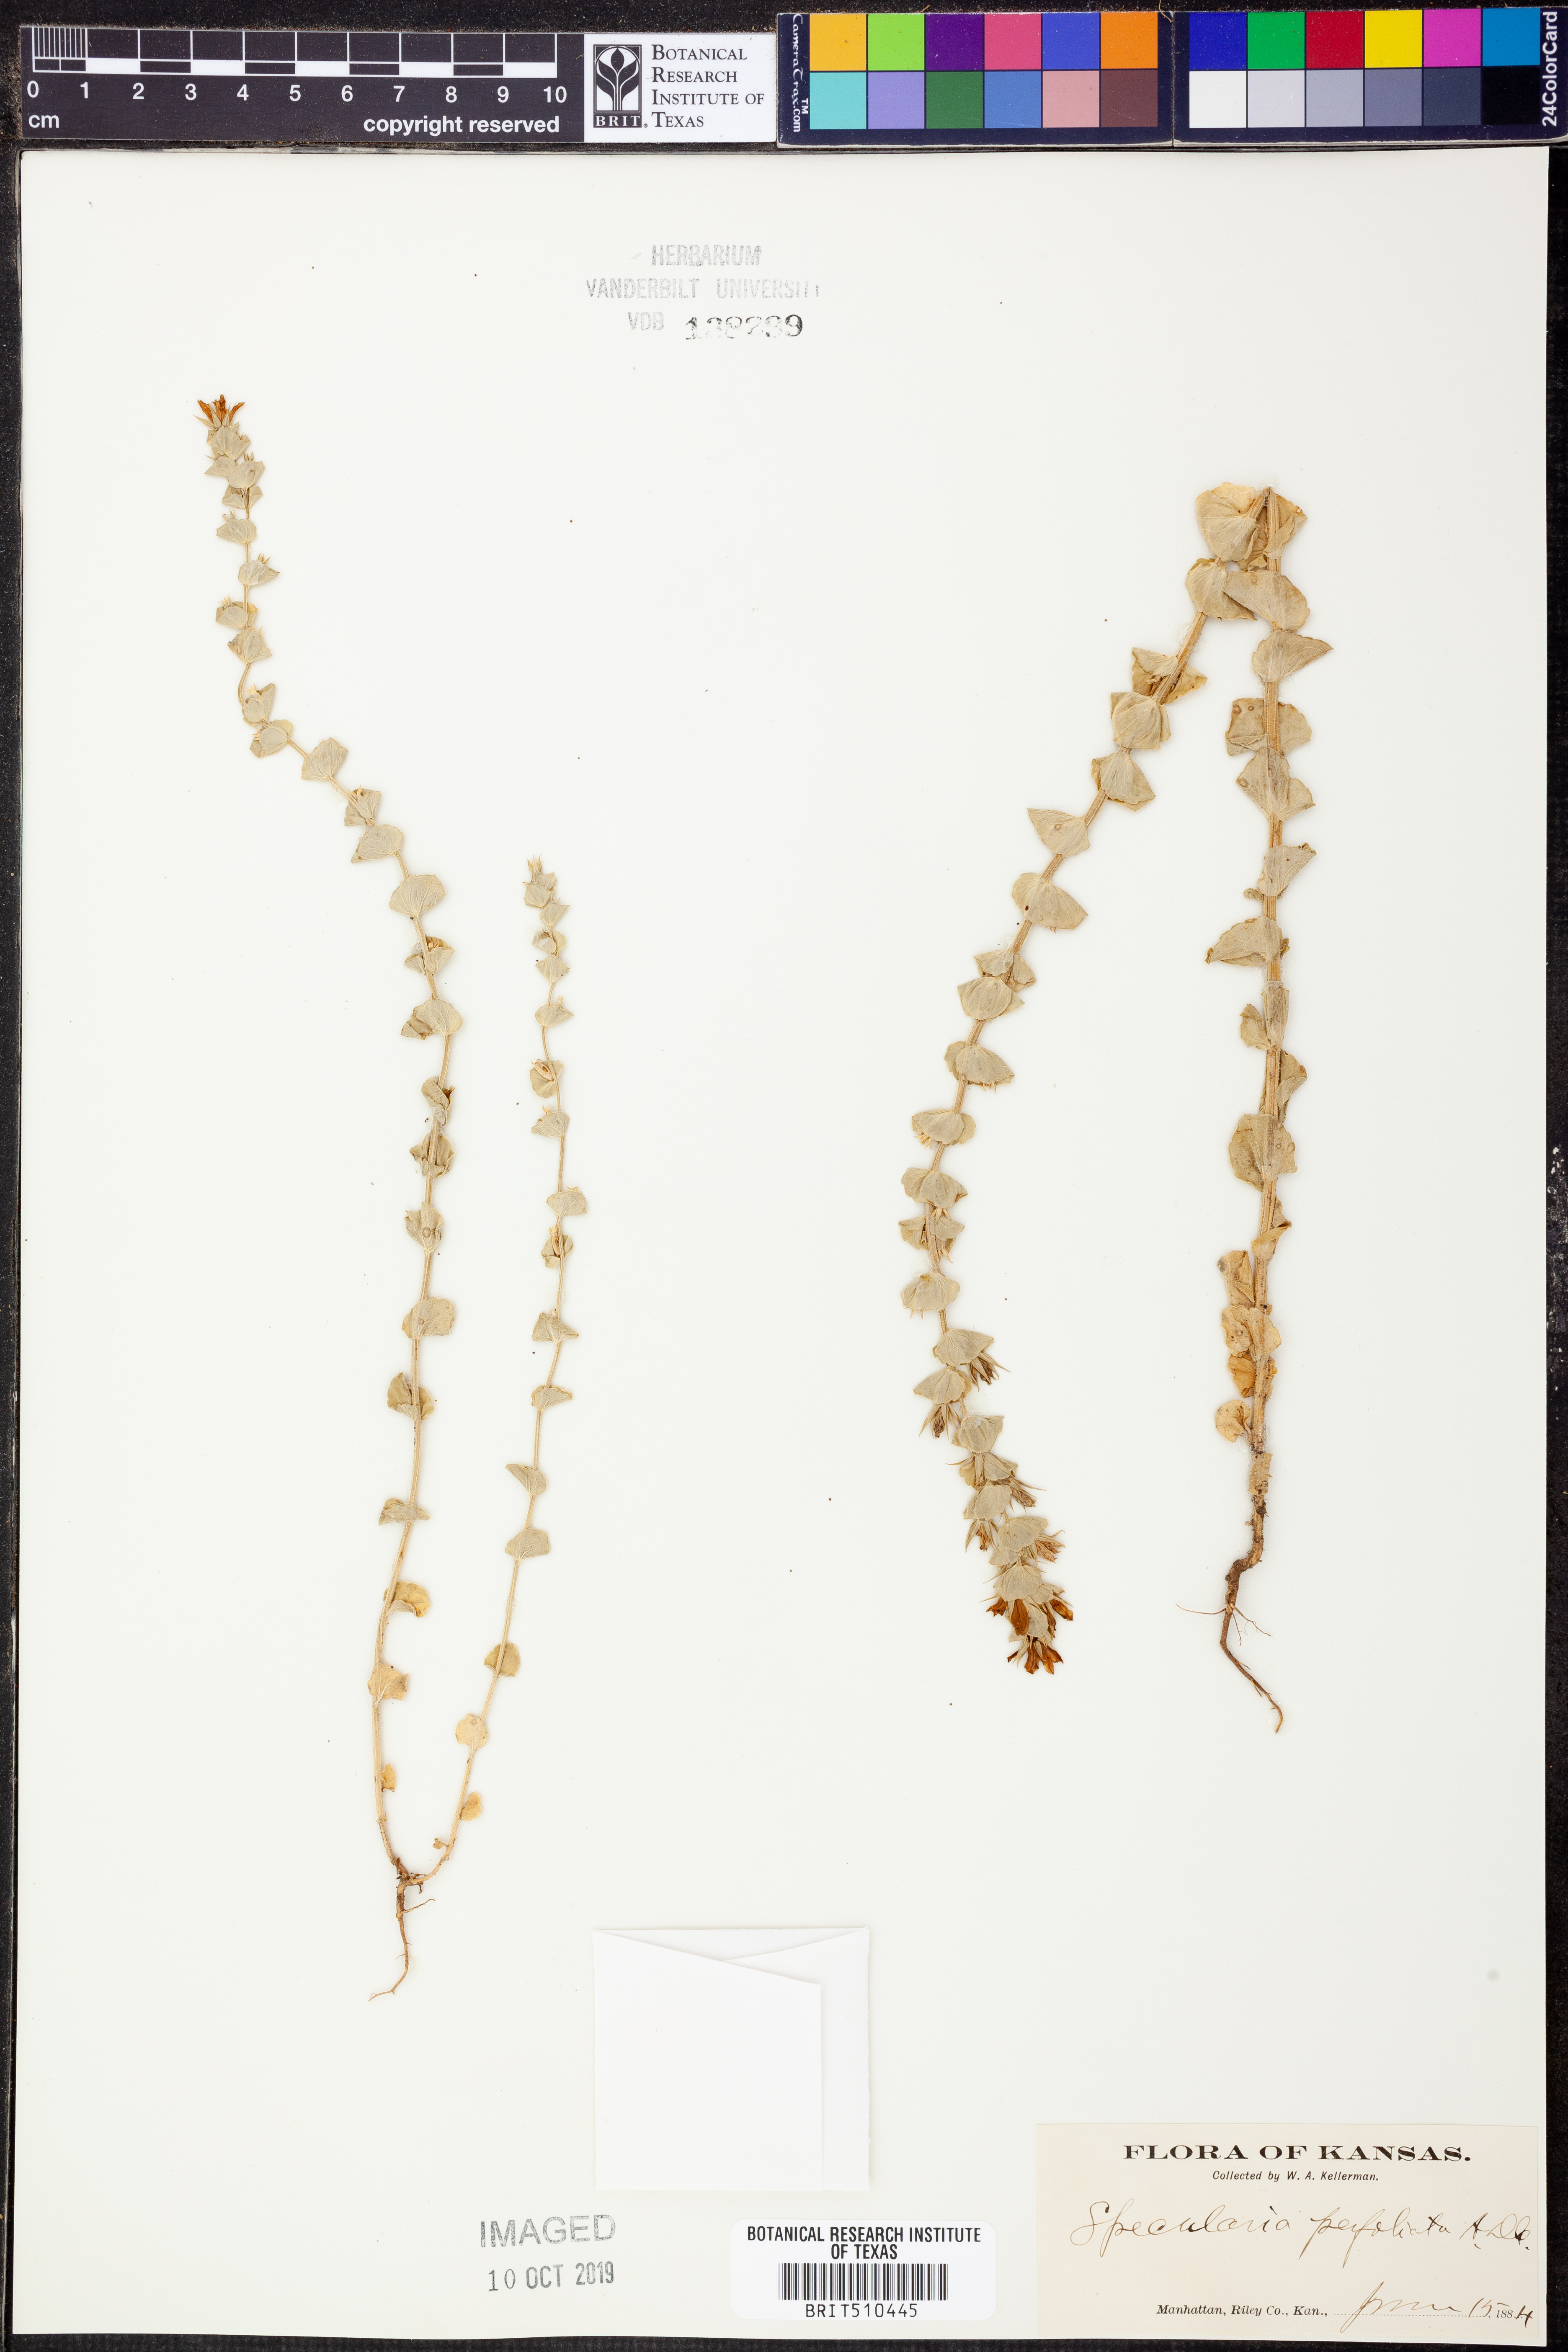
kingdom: Plantae
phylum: Tracheophyta
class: Magnoliopsida
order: Asterales
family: Campanulaceae
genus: Triodanis
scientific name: Triodanis perfoliata
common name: Clasping venus' looking-glass
